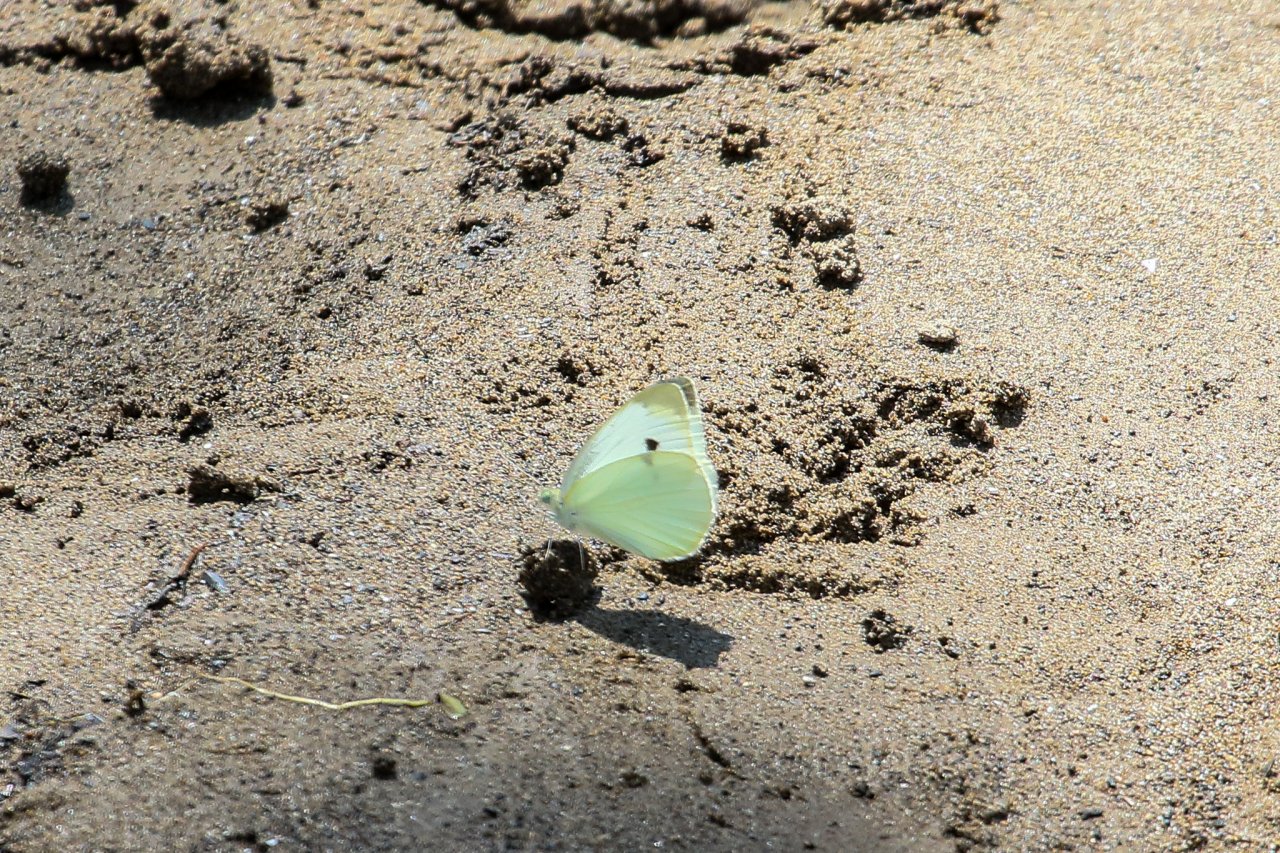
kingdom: Animalia
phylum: Arthropoda
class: Insecta
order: Lepidoptera
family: Pieridae
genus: Pieris
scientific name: Pieris rapae
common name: Cabbage White
